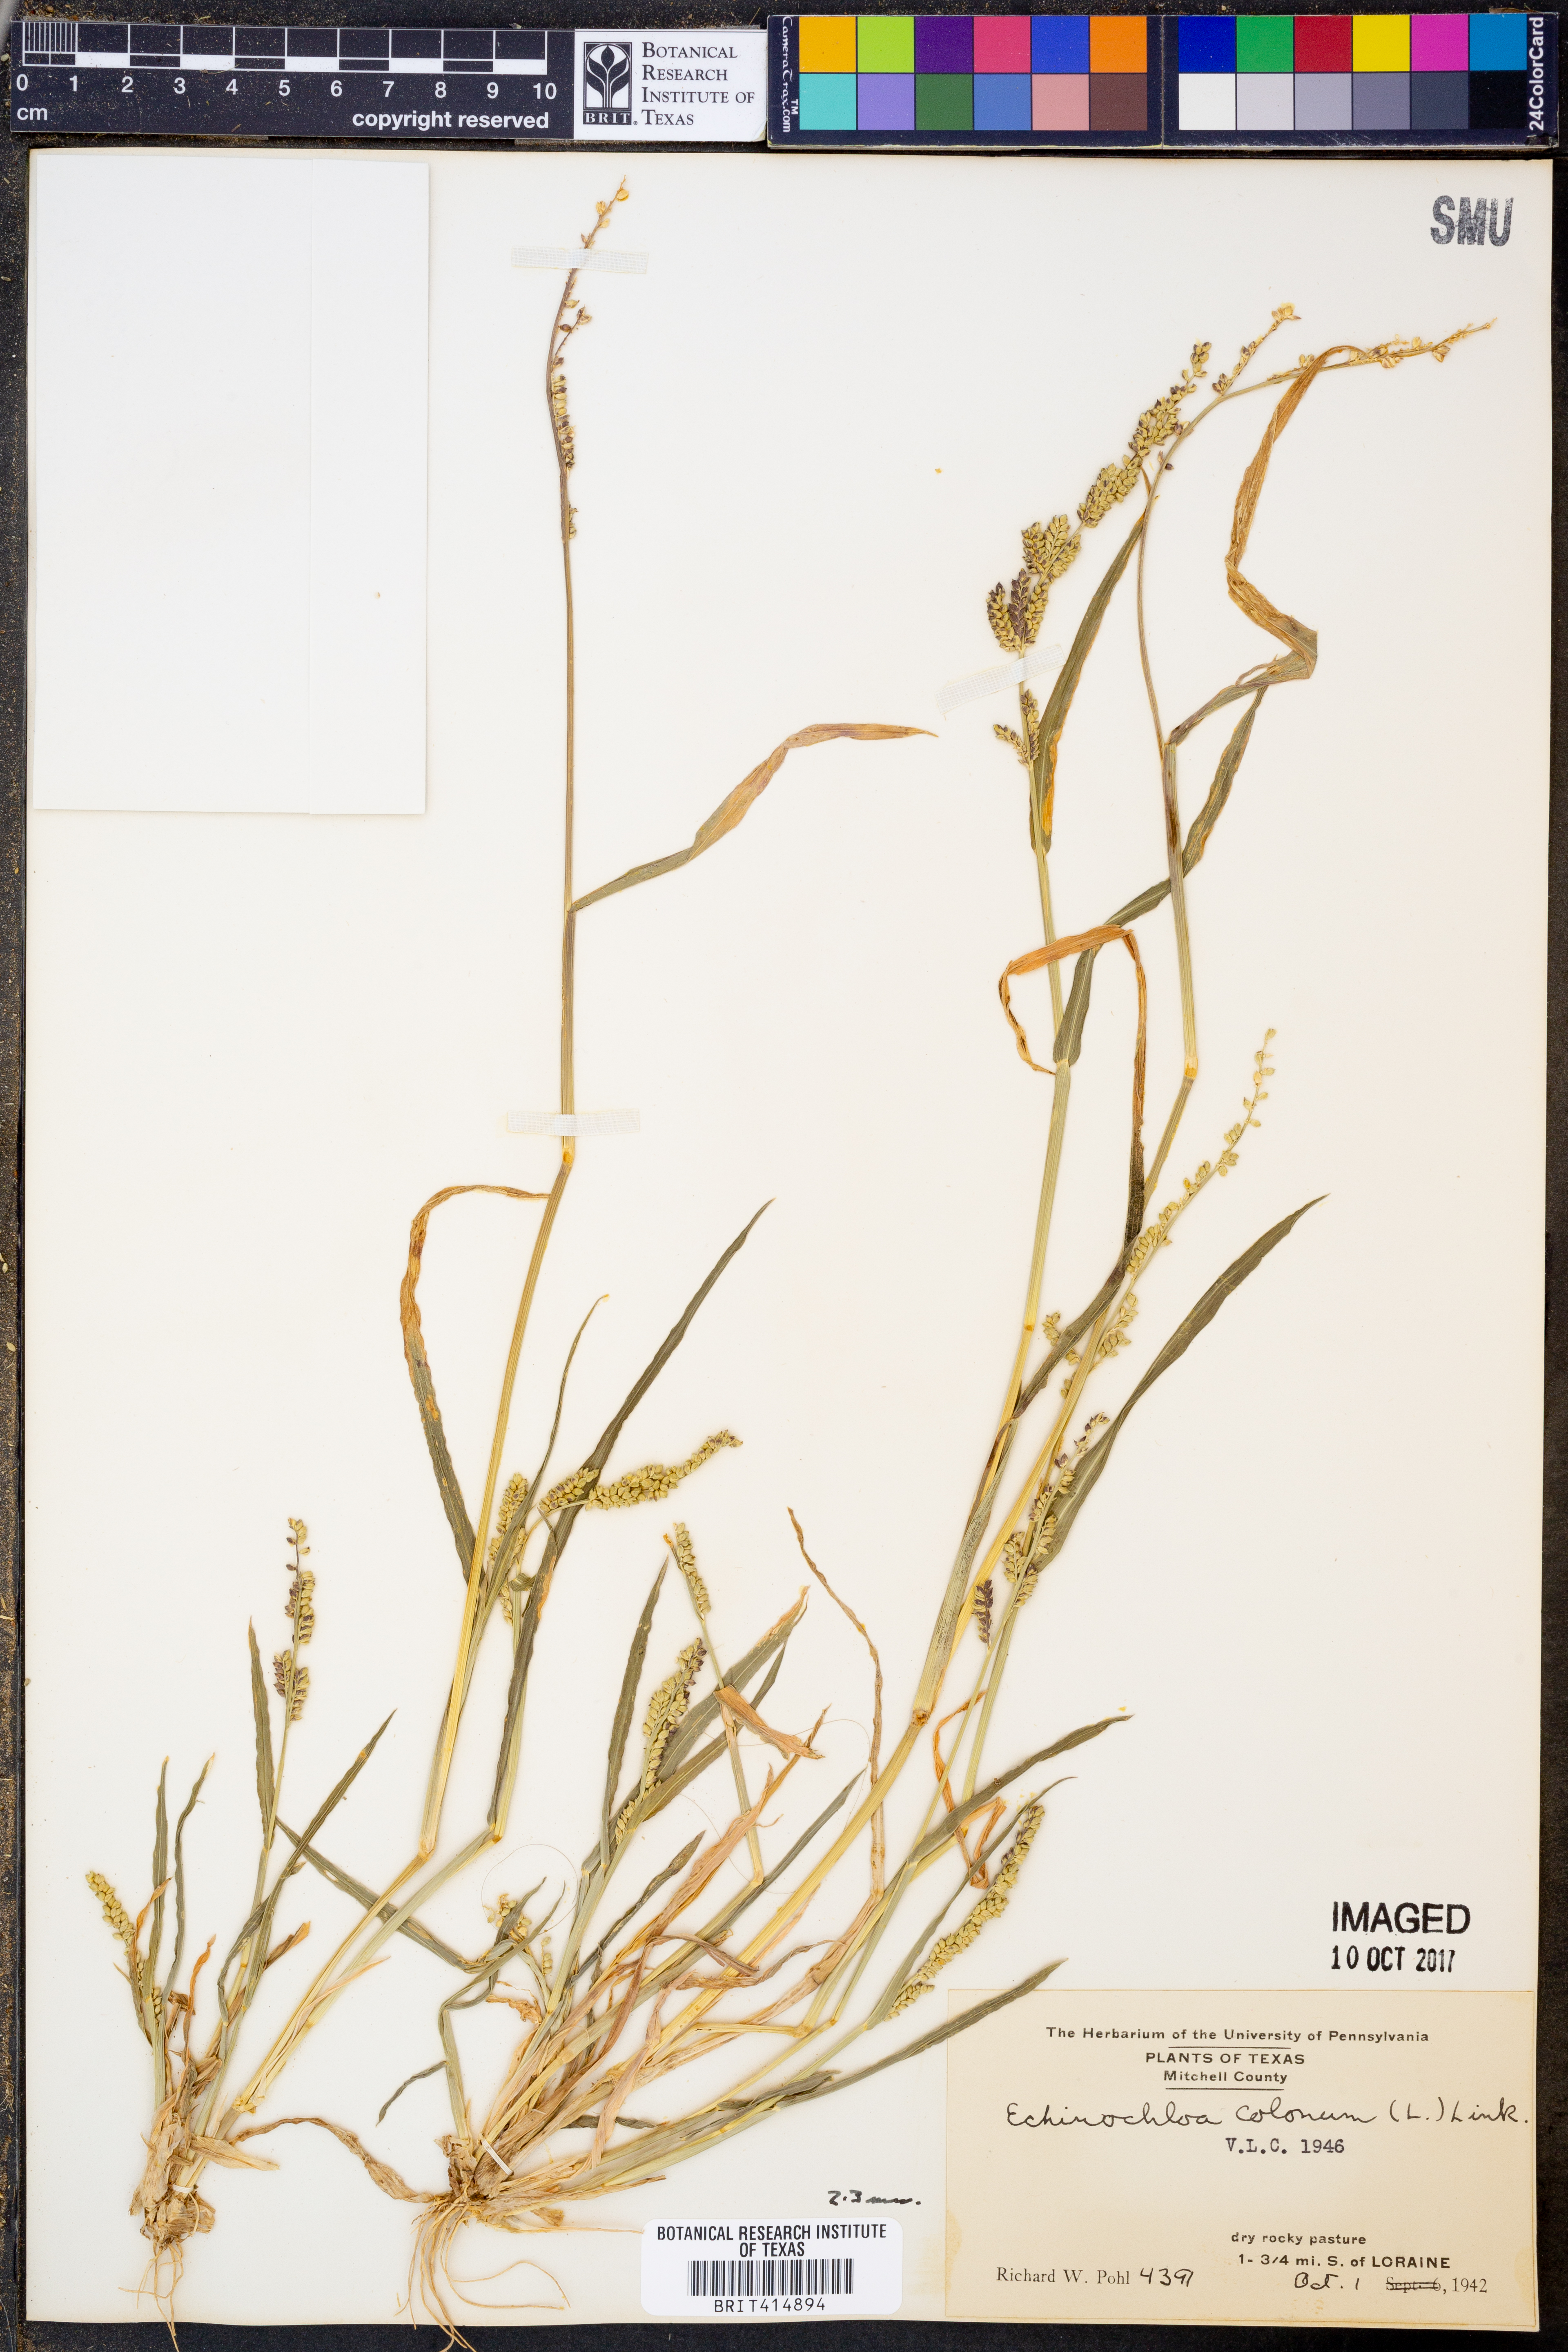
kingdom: Plantae
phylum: Tracheophyta
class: Liliopsida
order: Poales
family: Poaceae
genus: Echinochloa
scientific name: Echinochloa colonum
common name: Jungle rice
